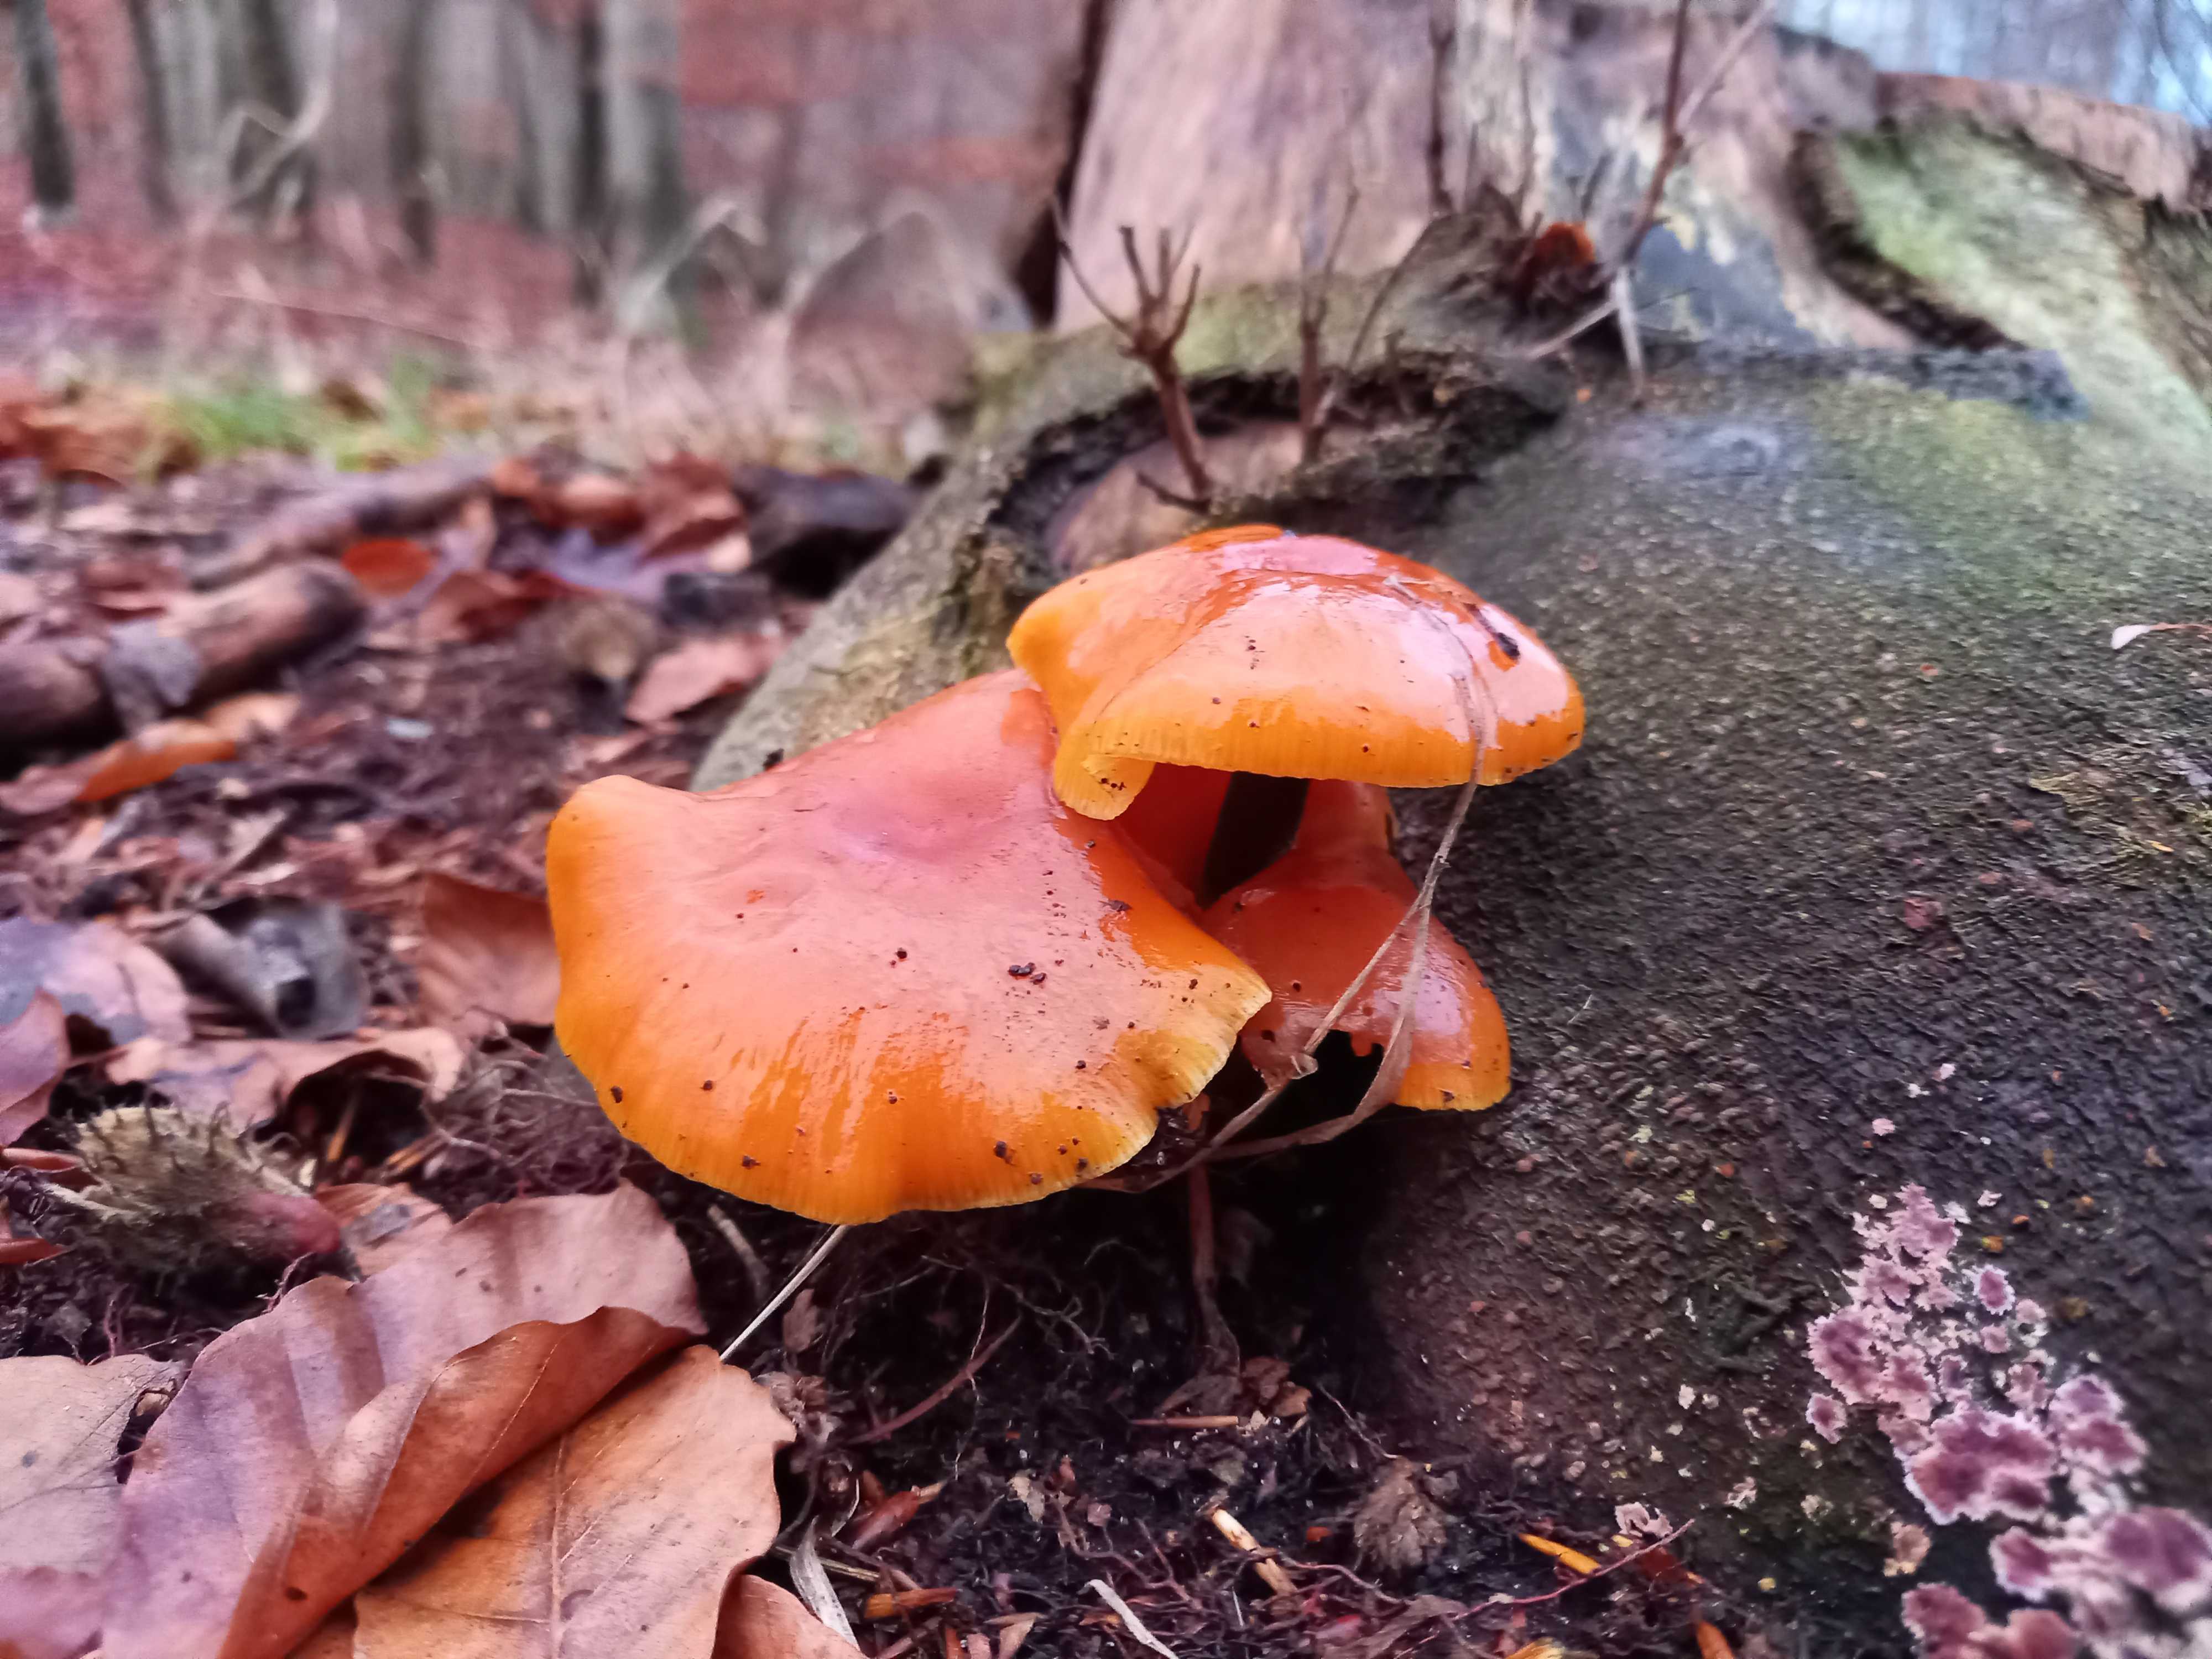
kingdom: Fungi
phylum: Basidiomycota
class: Agaricomycetes
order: Agaricales
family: Physalacriaceae
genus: Flammulina
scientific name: Flammulina velutipes
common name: gul fløjlsfod
